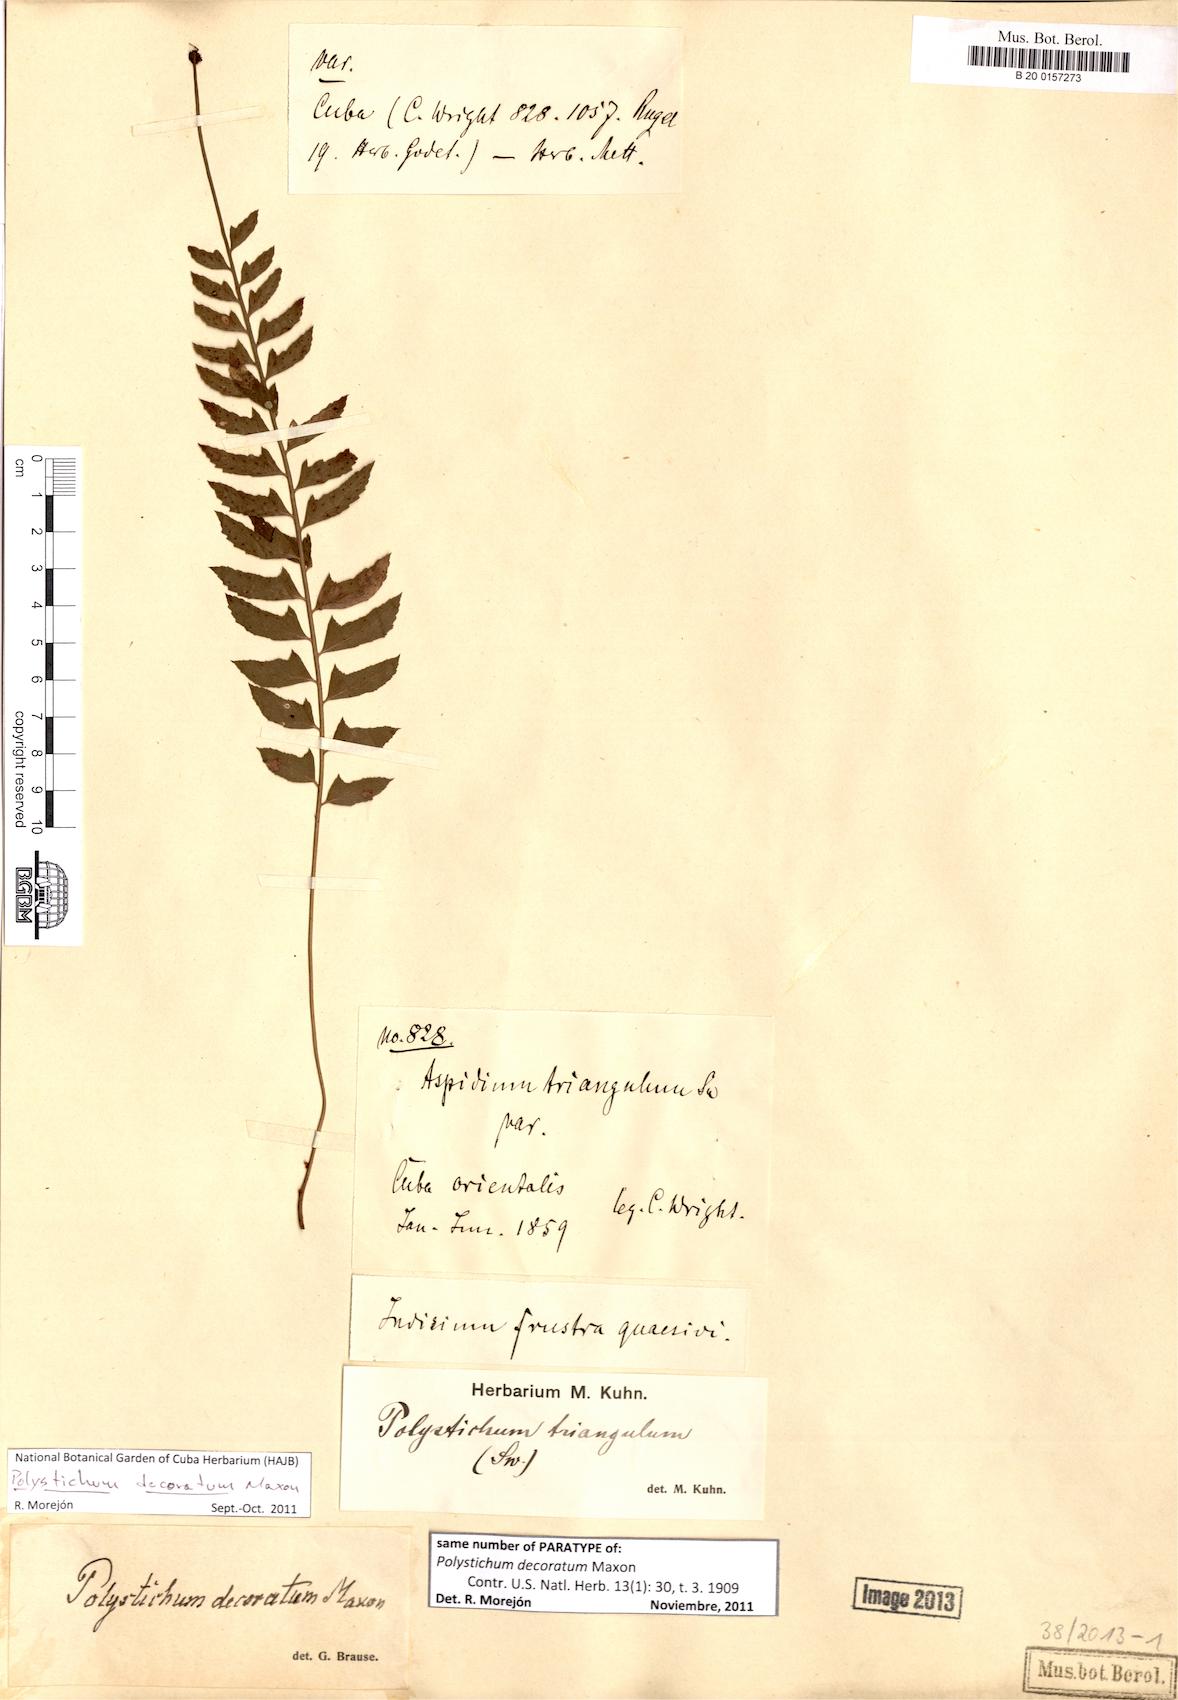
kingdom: Plantae
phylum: Tracheophyta
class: Polypodiopsida
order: Polypodiales
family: Dryopteridaceae
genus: Polystichum
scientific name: Polystichum decoratum
